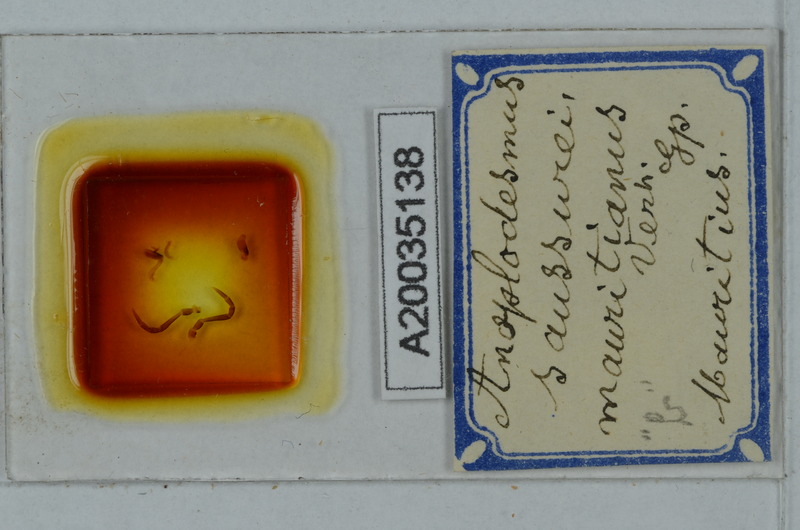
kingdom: Animalia
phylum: Arthropoda
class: Diplopoda
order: Polydesmida
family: Paradoxosomatidae
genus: Anoplodesmus
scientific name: Anoplodesmus saussurii
